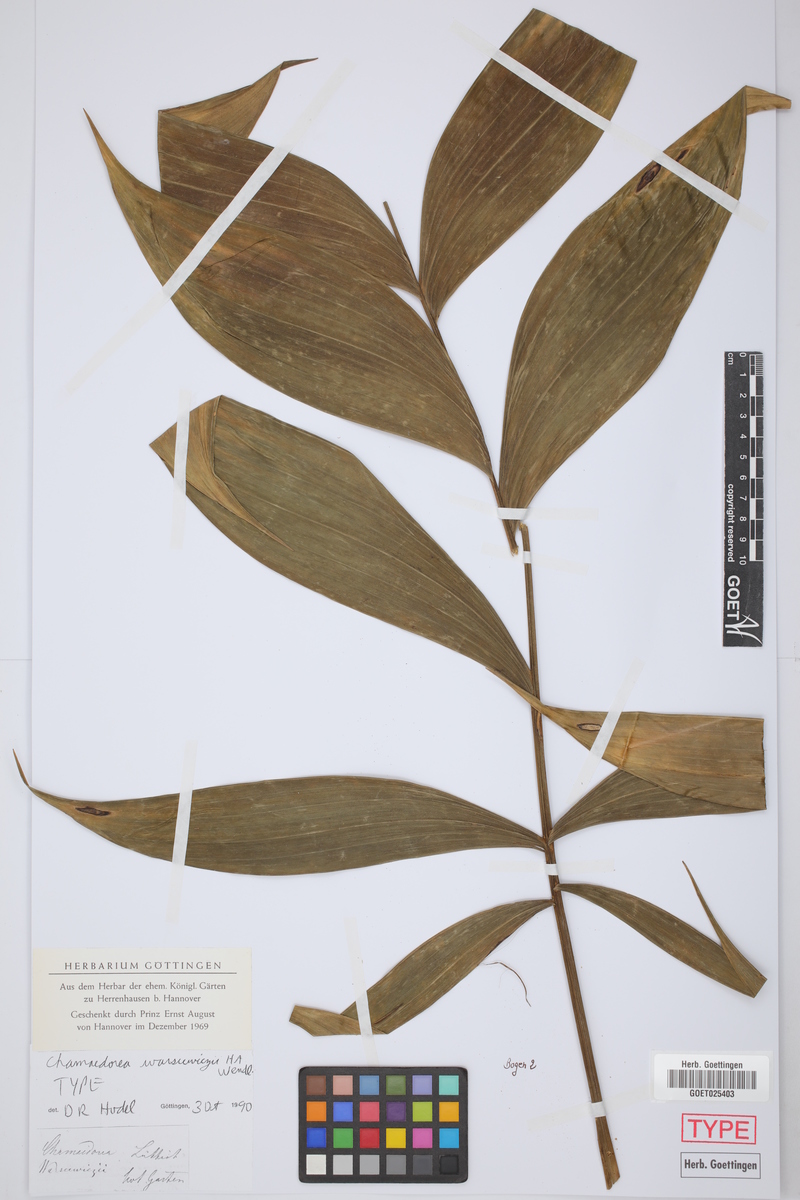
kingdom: Plantae
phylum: Tracheophyta
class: Liliopsida
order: Arecales
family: Arecaceae
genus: Chamaedorea
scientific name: Chamaedorea warscewiczii
